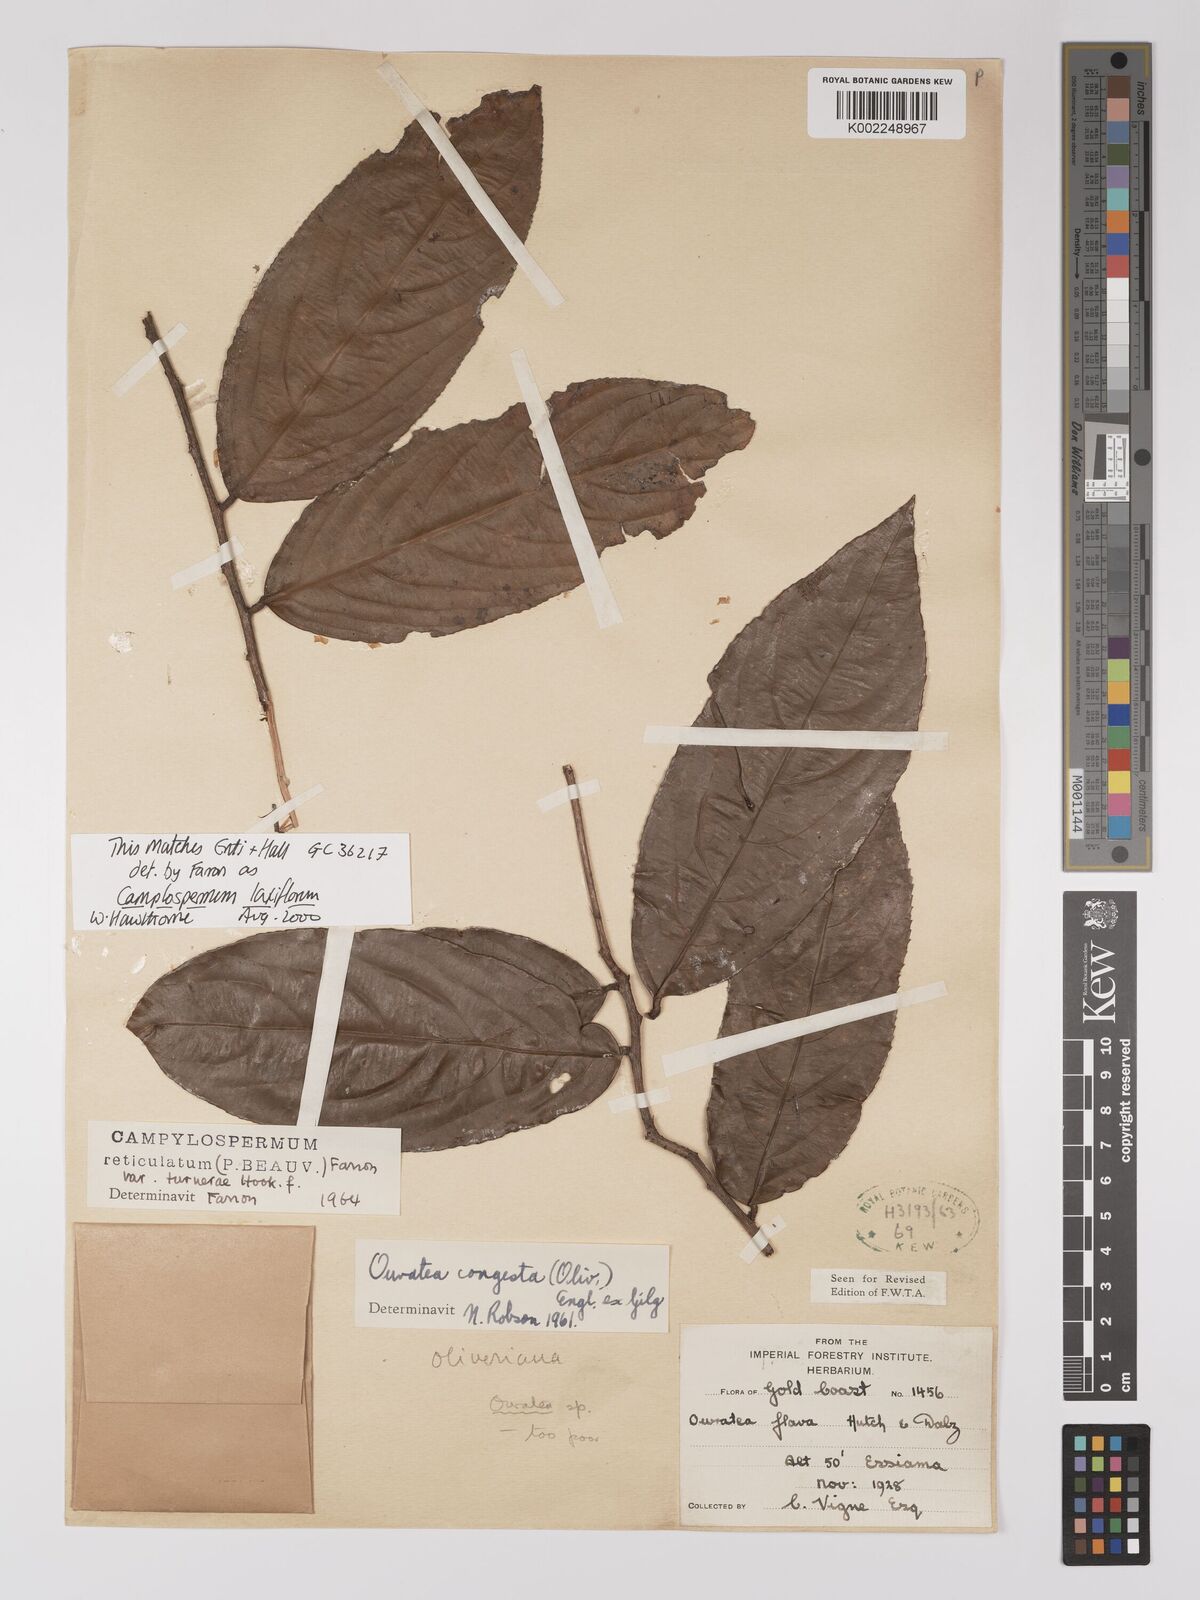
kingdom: Plantae
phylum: Tracheophyta
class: Magnoliopsida
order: Malpighiales
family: Ochnaceae
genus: Campylospermum
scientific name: Campylospermum laxiflorum
